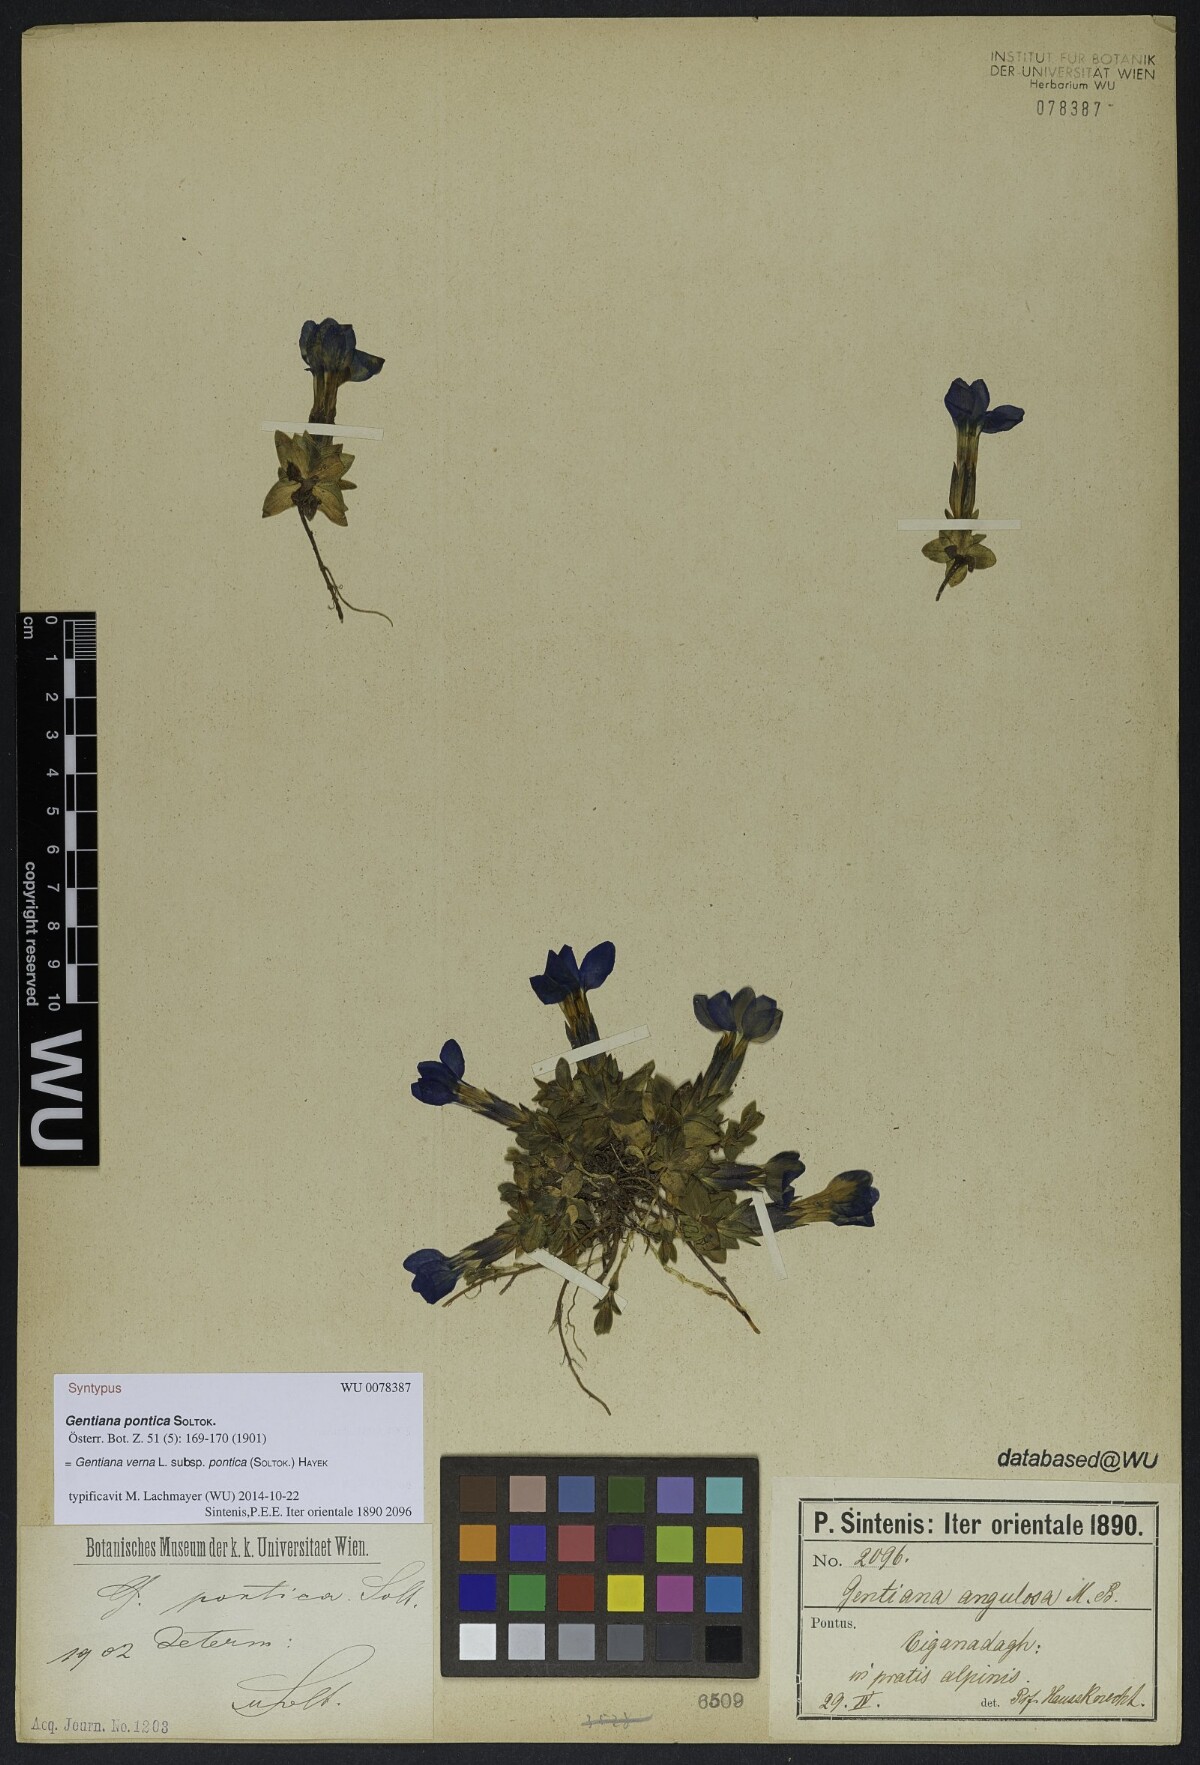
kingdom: Plantae
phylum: Tracheophyta
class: Magnoliopsida
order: Gentianales
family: Gentianaceae
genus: Gentiana
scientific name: Gentiana verna
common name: Spring gentian
